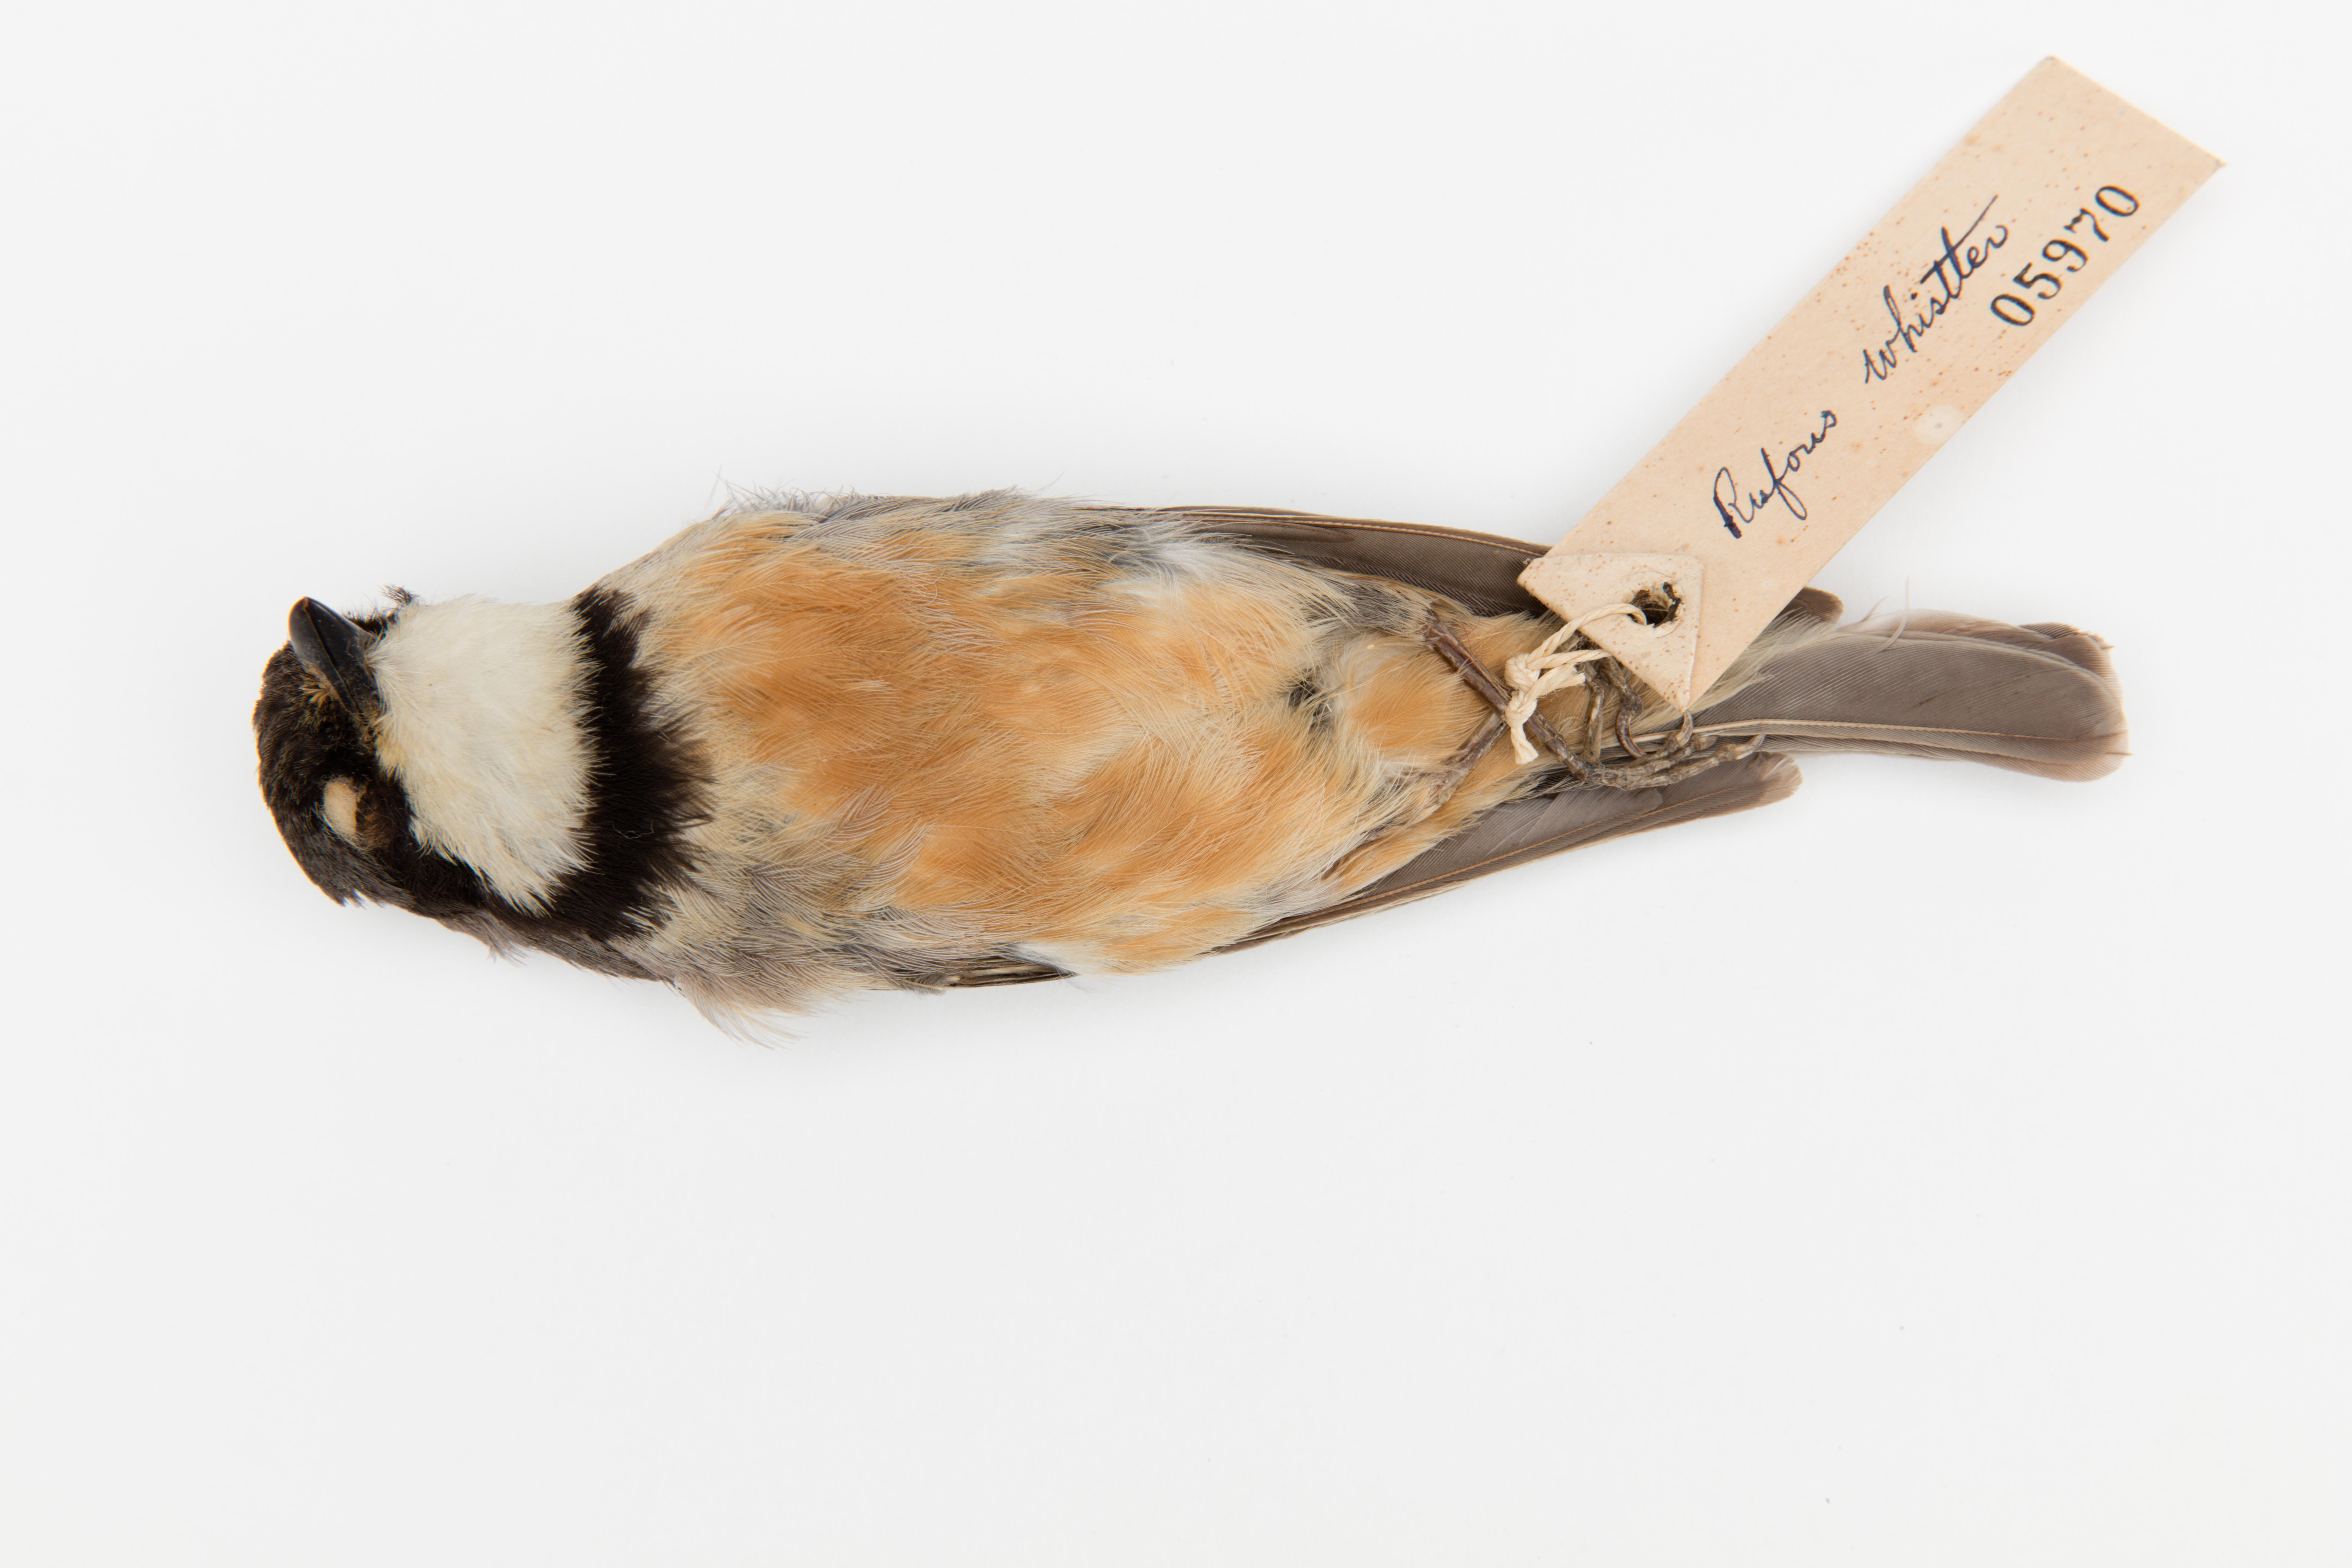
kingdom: Animalia
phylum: Chordata
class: Aves
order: Passeriformes
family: Pachycephalidae
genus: Pachycephala
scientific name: Pachycephala rufiventris
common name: Rufous whistler
